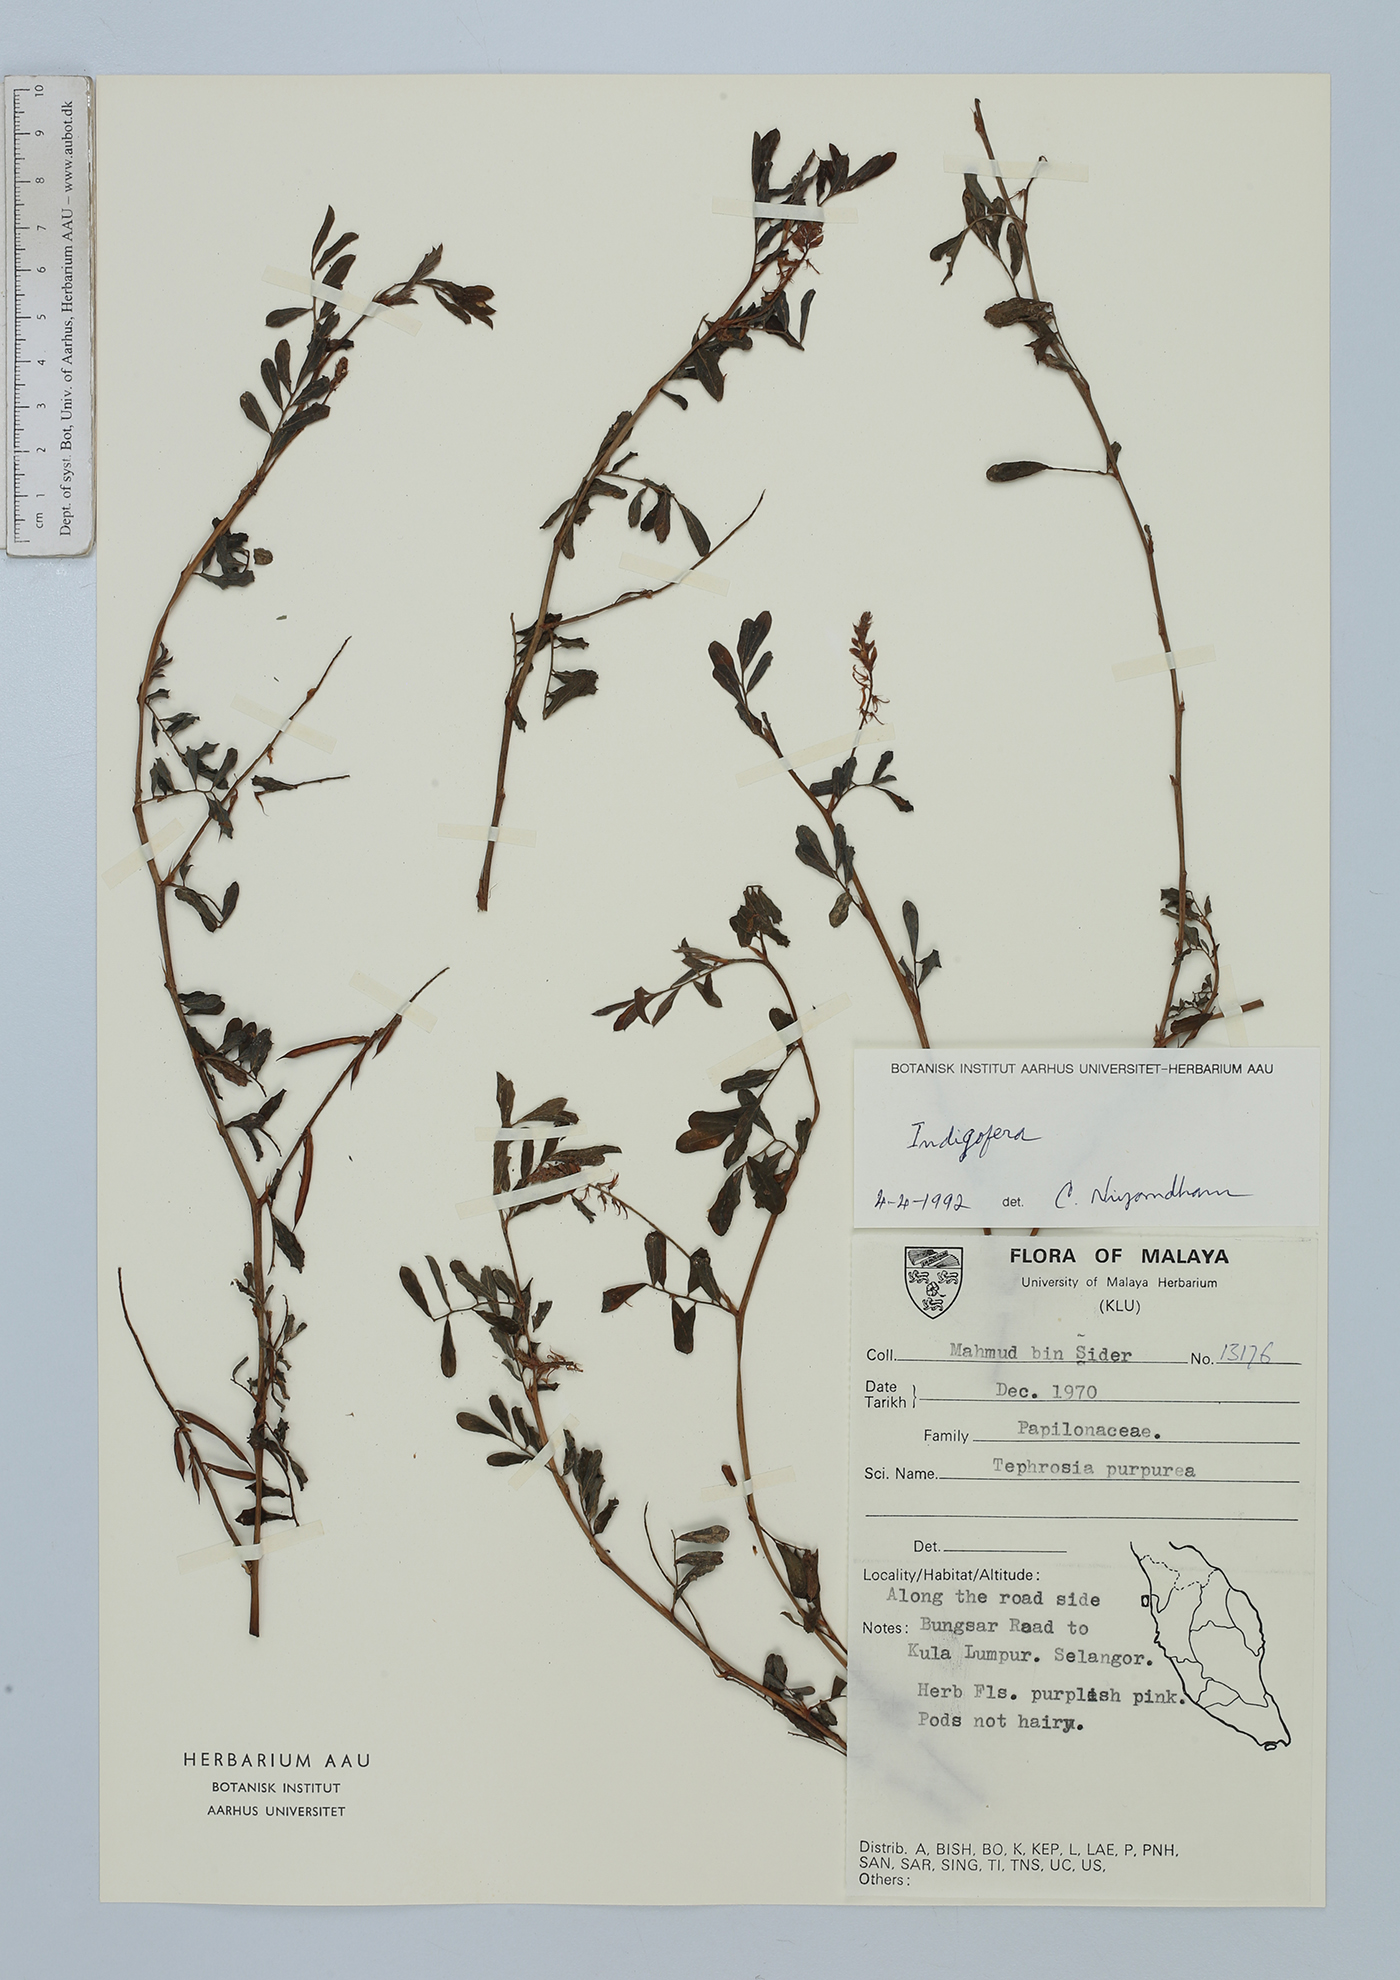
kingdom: Plantae
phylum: Tracheophyta
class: Magnoliopsida
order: Fabales
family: Fabaceae
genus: Indigofera
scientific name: Indigofera
